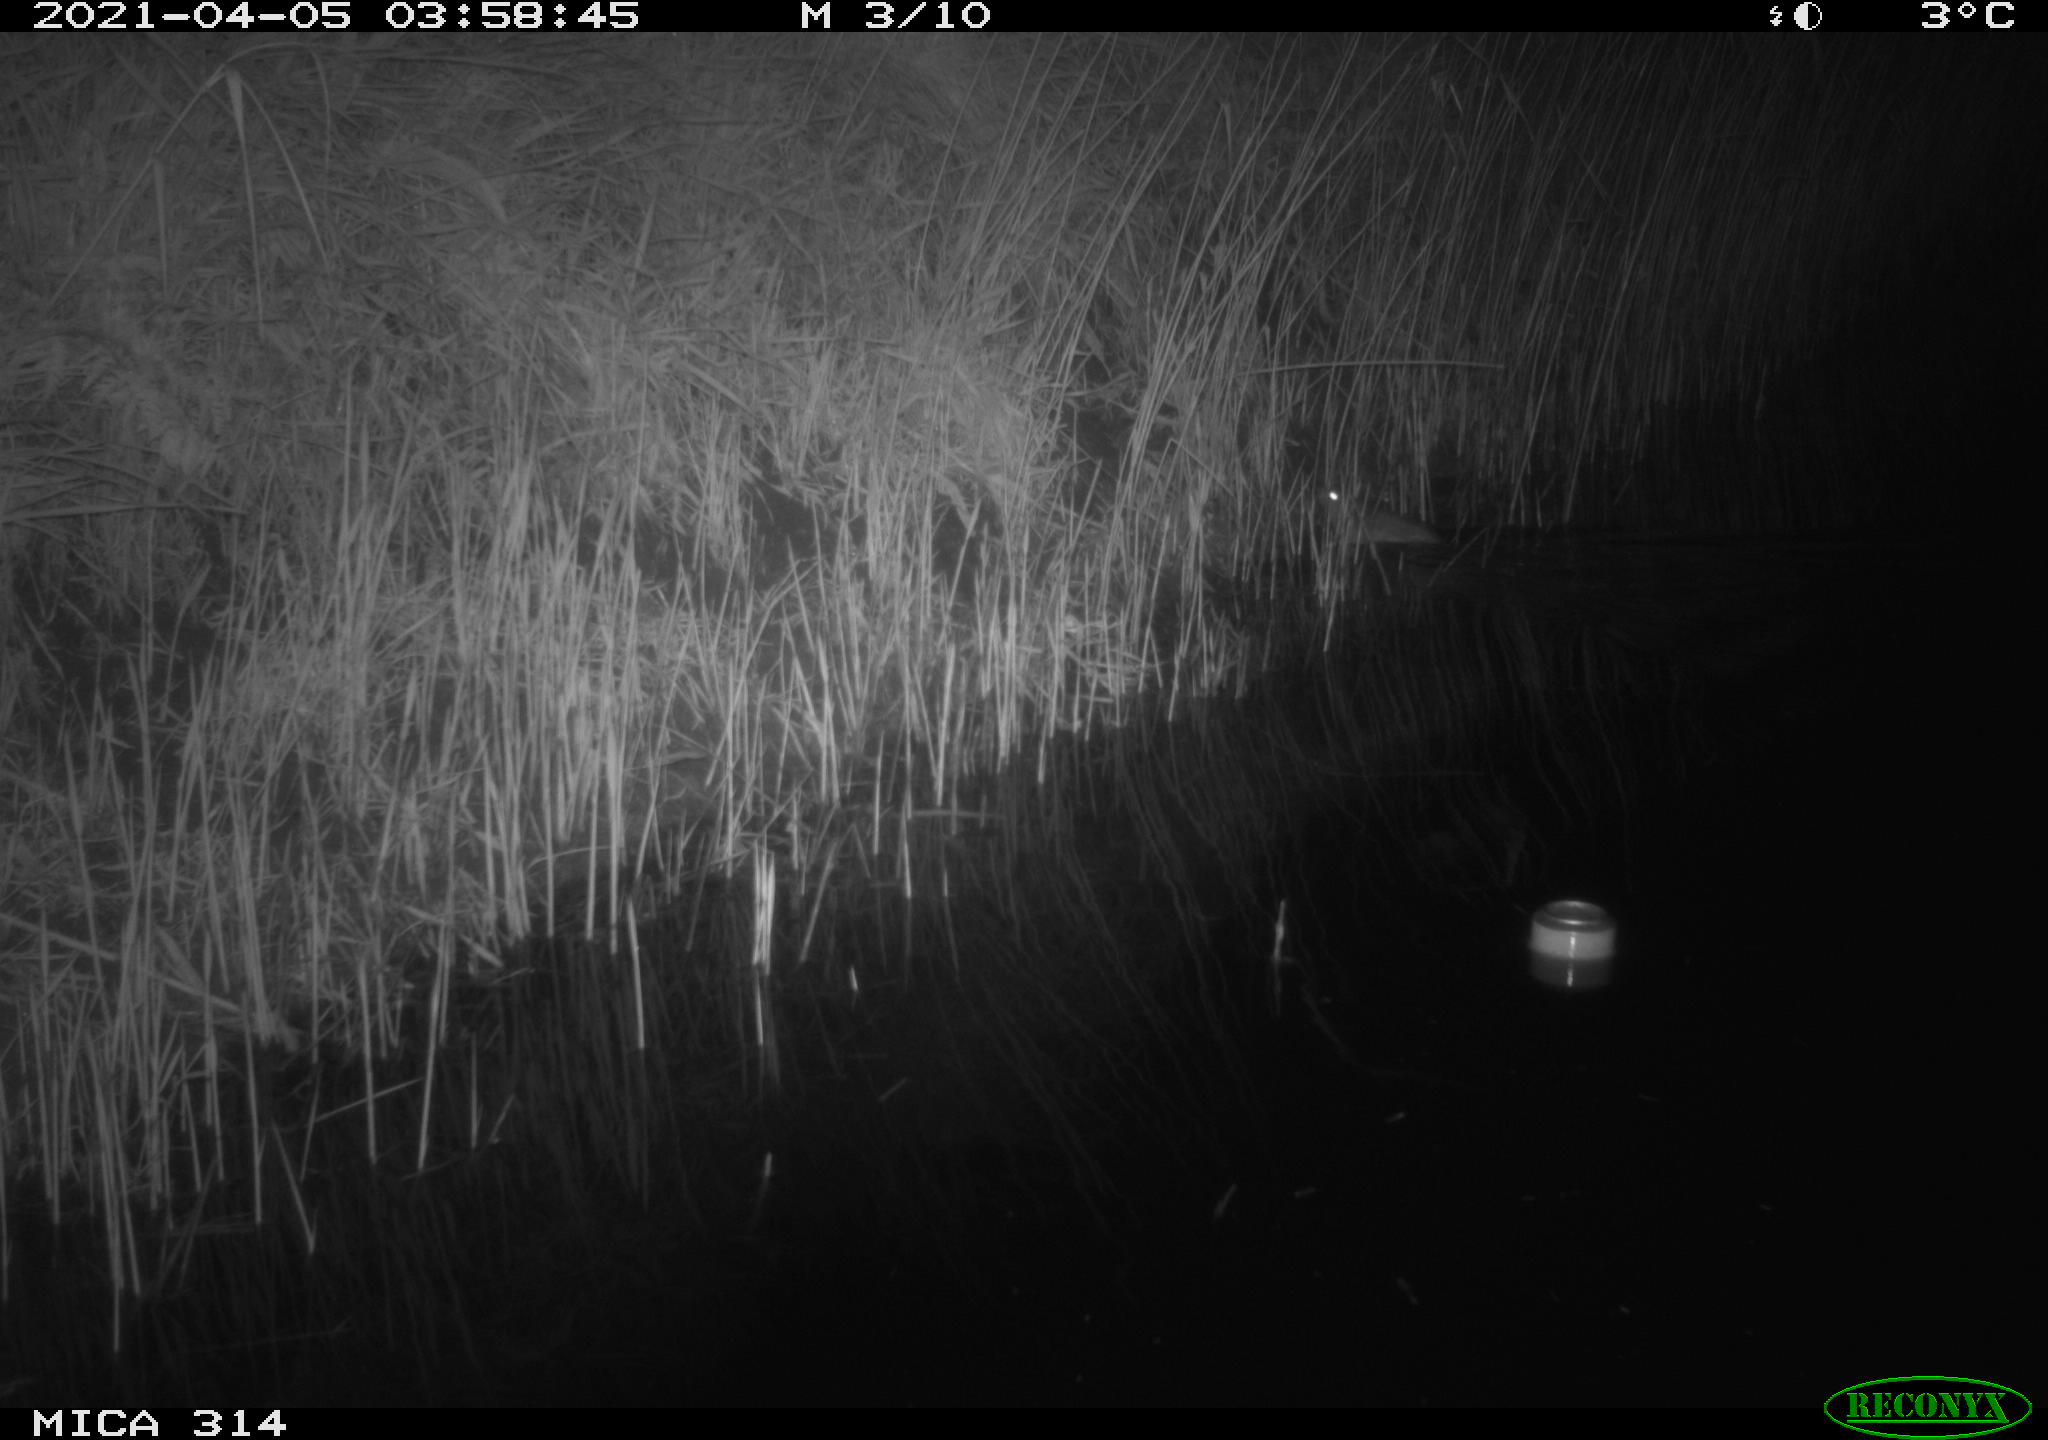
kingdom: Animalia
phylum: Chordata
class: Mammalia
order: Rodentia
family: Muridae
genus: Rattus
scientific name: Rattus norvegicus
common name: Brown rat
